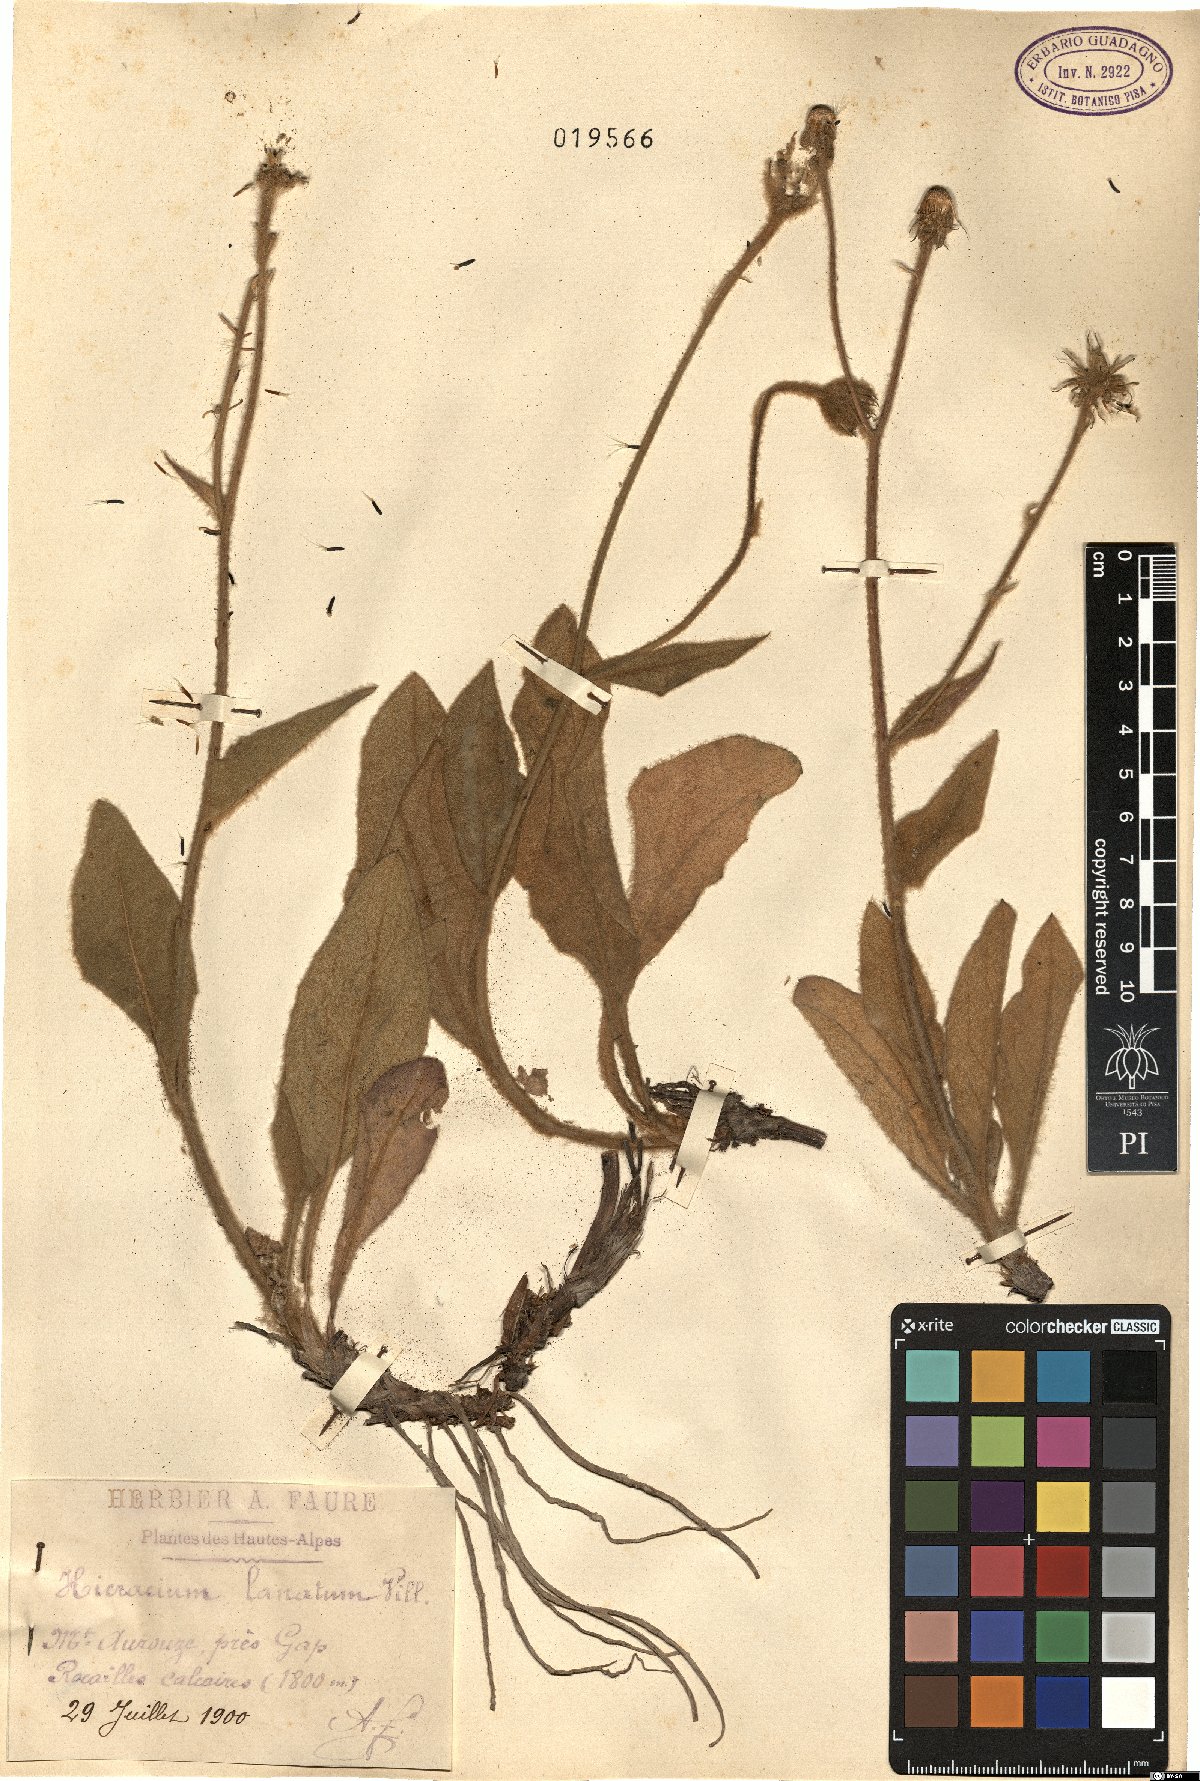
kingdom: Plantae
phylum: Tracheophyta
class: Magnoliopsida
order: Asterales
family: Asteraceae
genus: Hieracium
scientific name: Hieracium tomentosum
